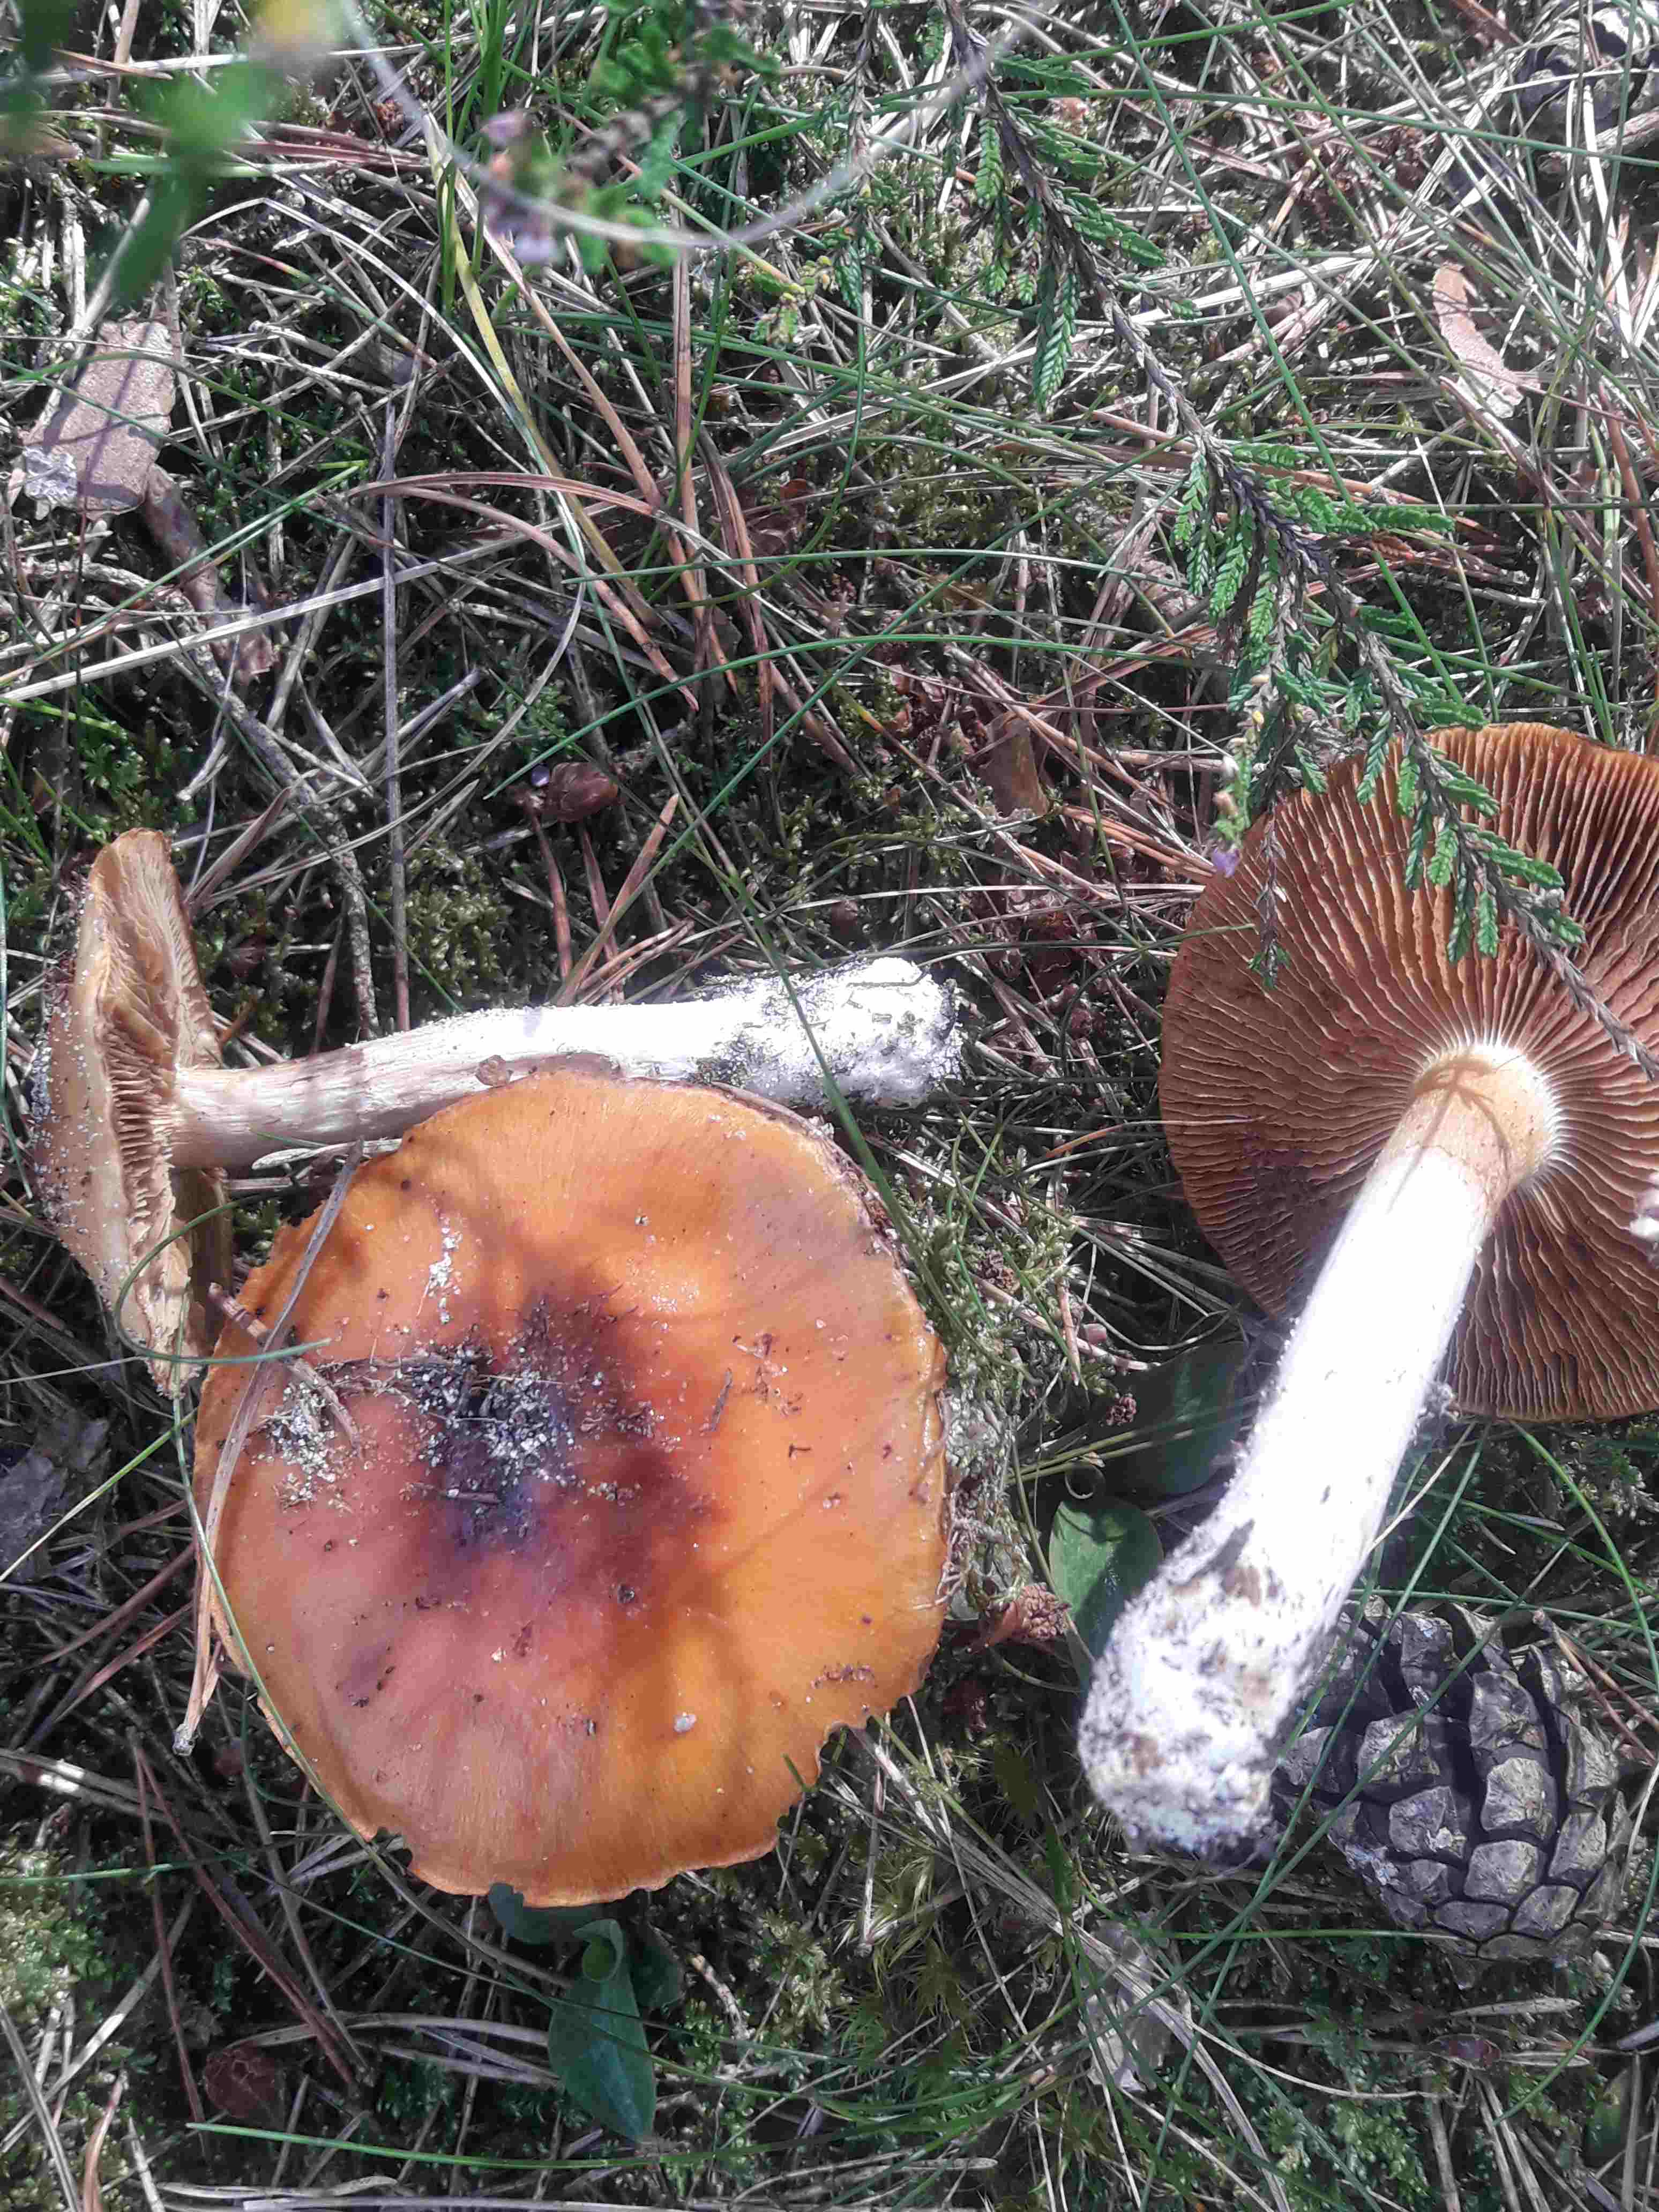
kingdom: Fungi
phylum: Basidiomycota
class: Agaricomycetes
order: Agaricales
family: Cortinariaceae
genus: Cortinarius
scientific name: Cortinarius mucosus
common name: kastaniebrun slørhat
